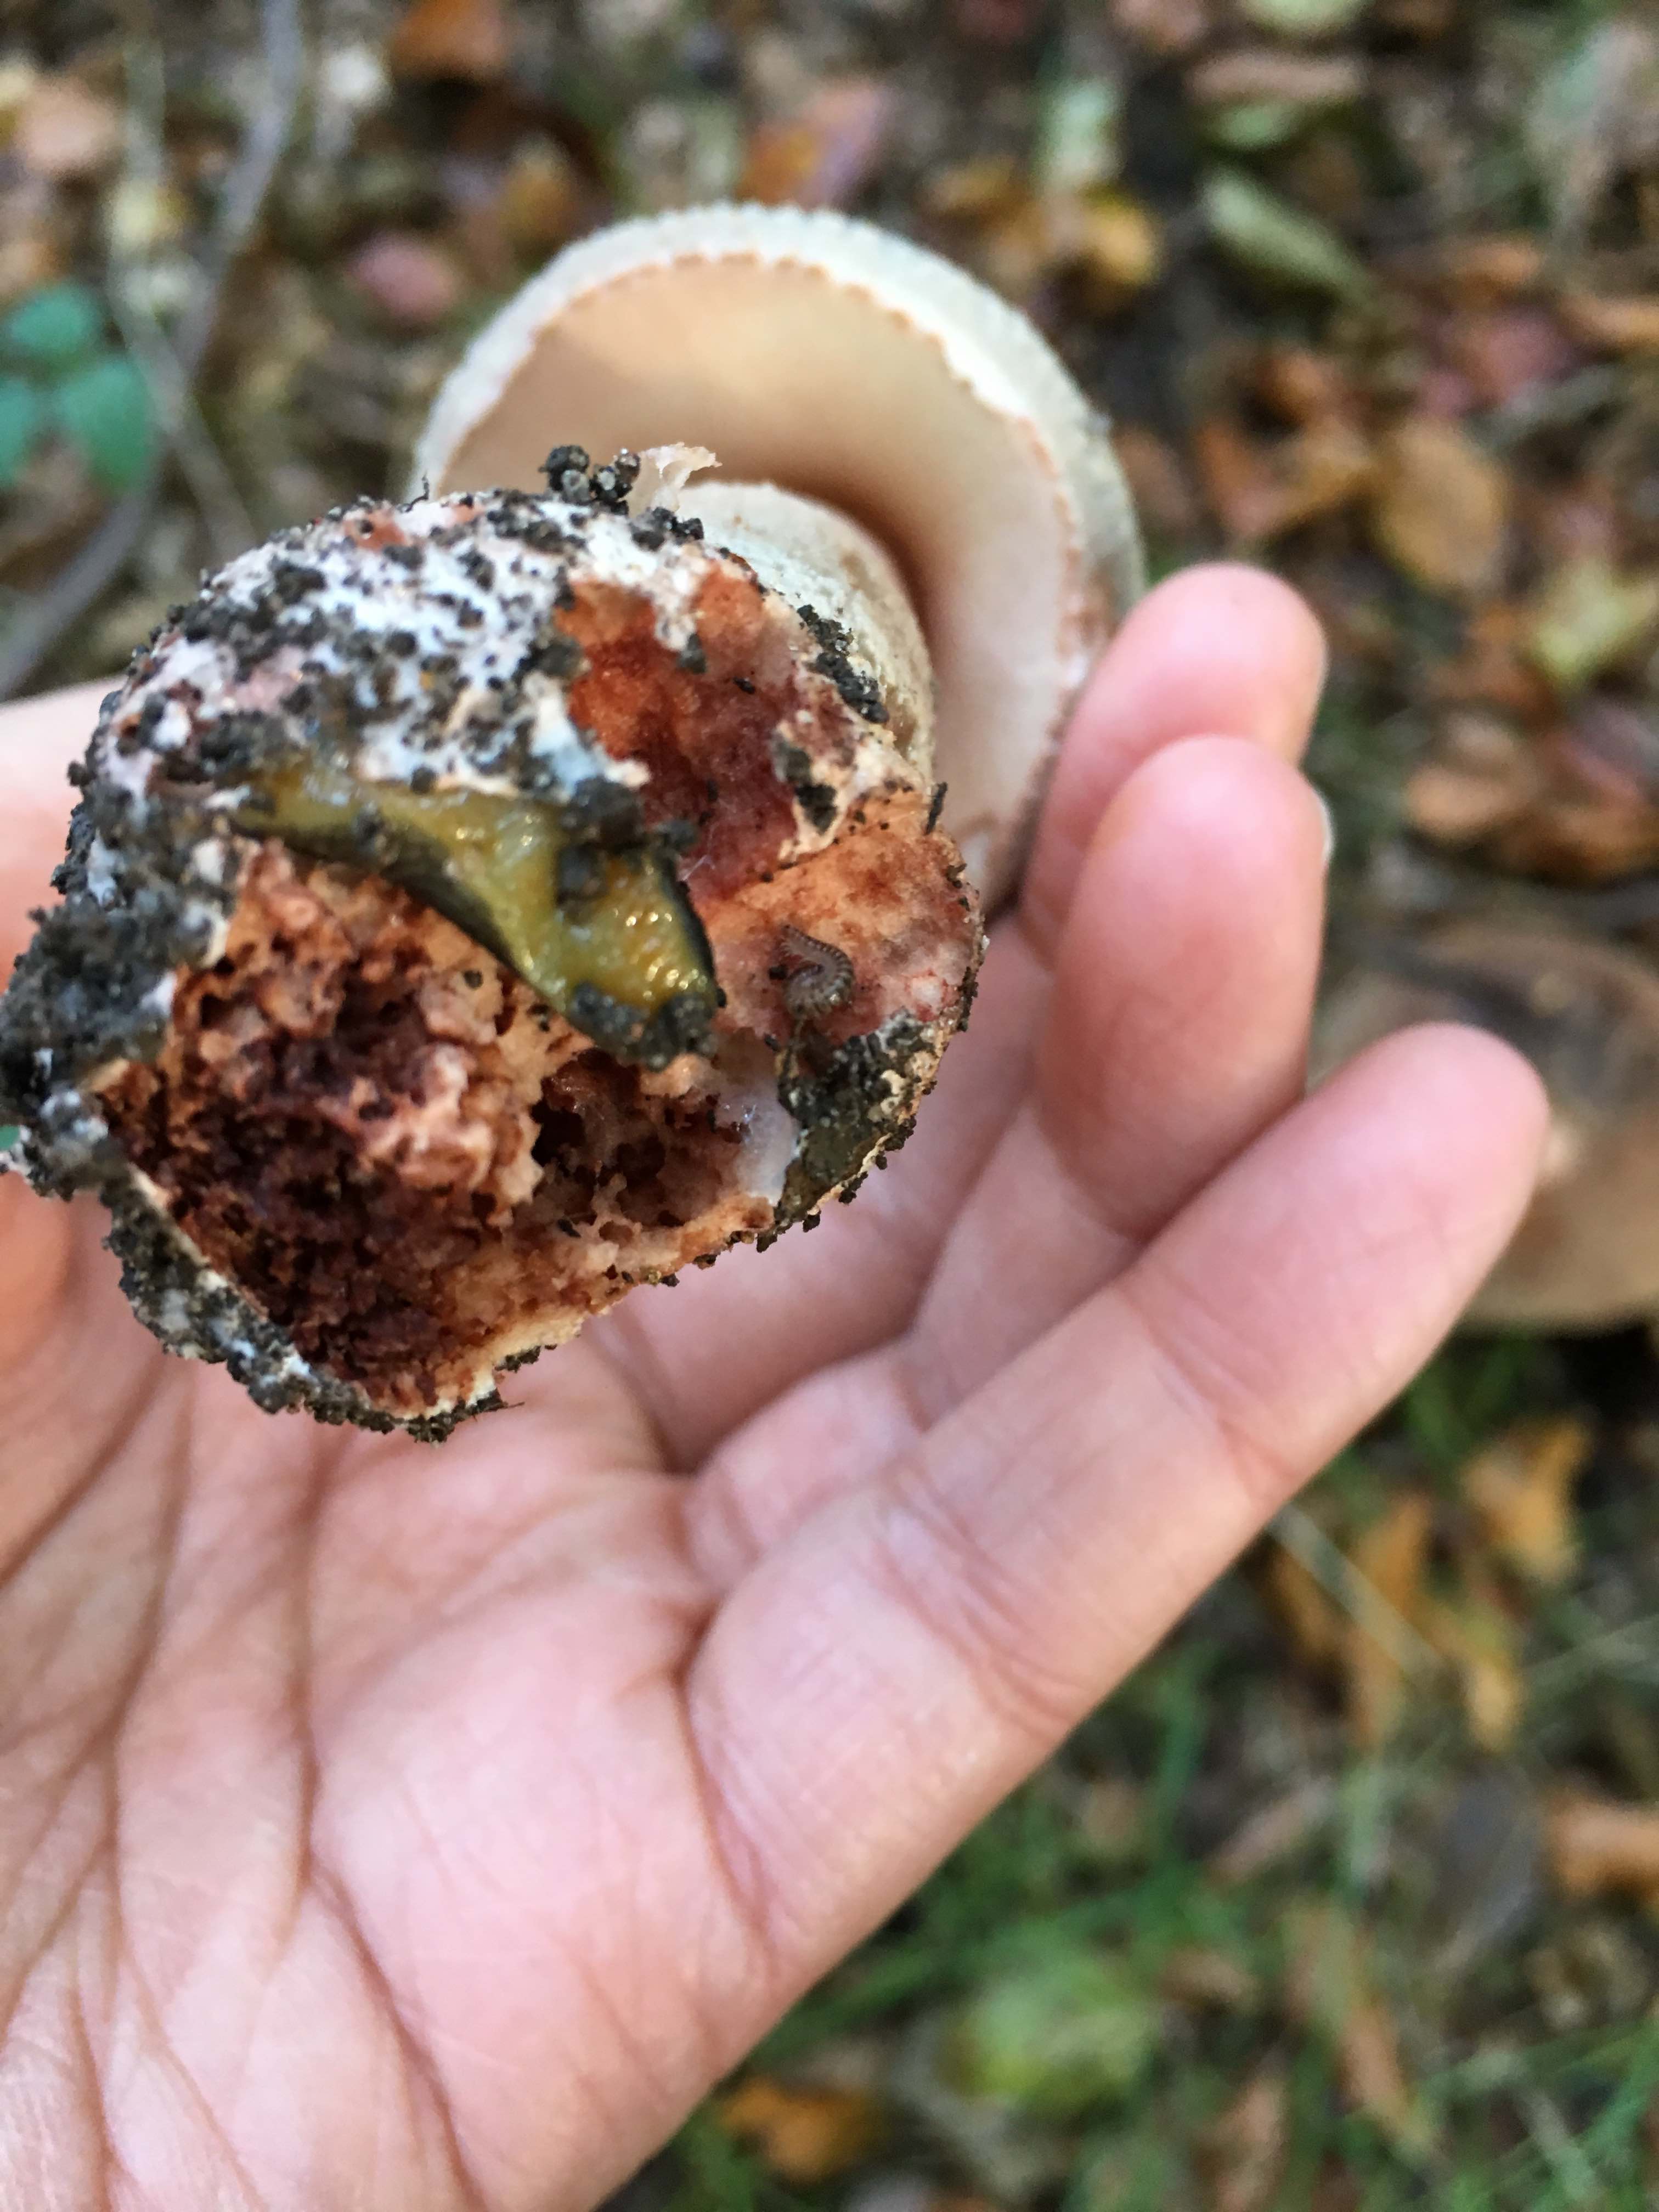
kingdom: Fungi
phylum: Basidiomycota
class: Agaricomycetes
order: Agaricales
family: Amanitaceae
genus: Amanita
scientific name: Amanita rubescens
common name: rødmende fluesvamp
